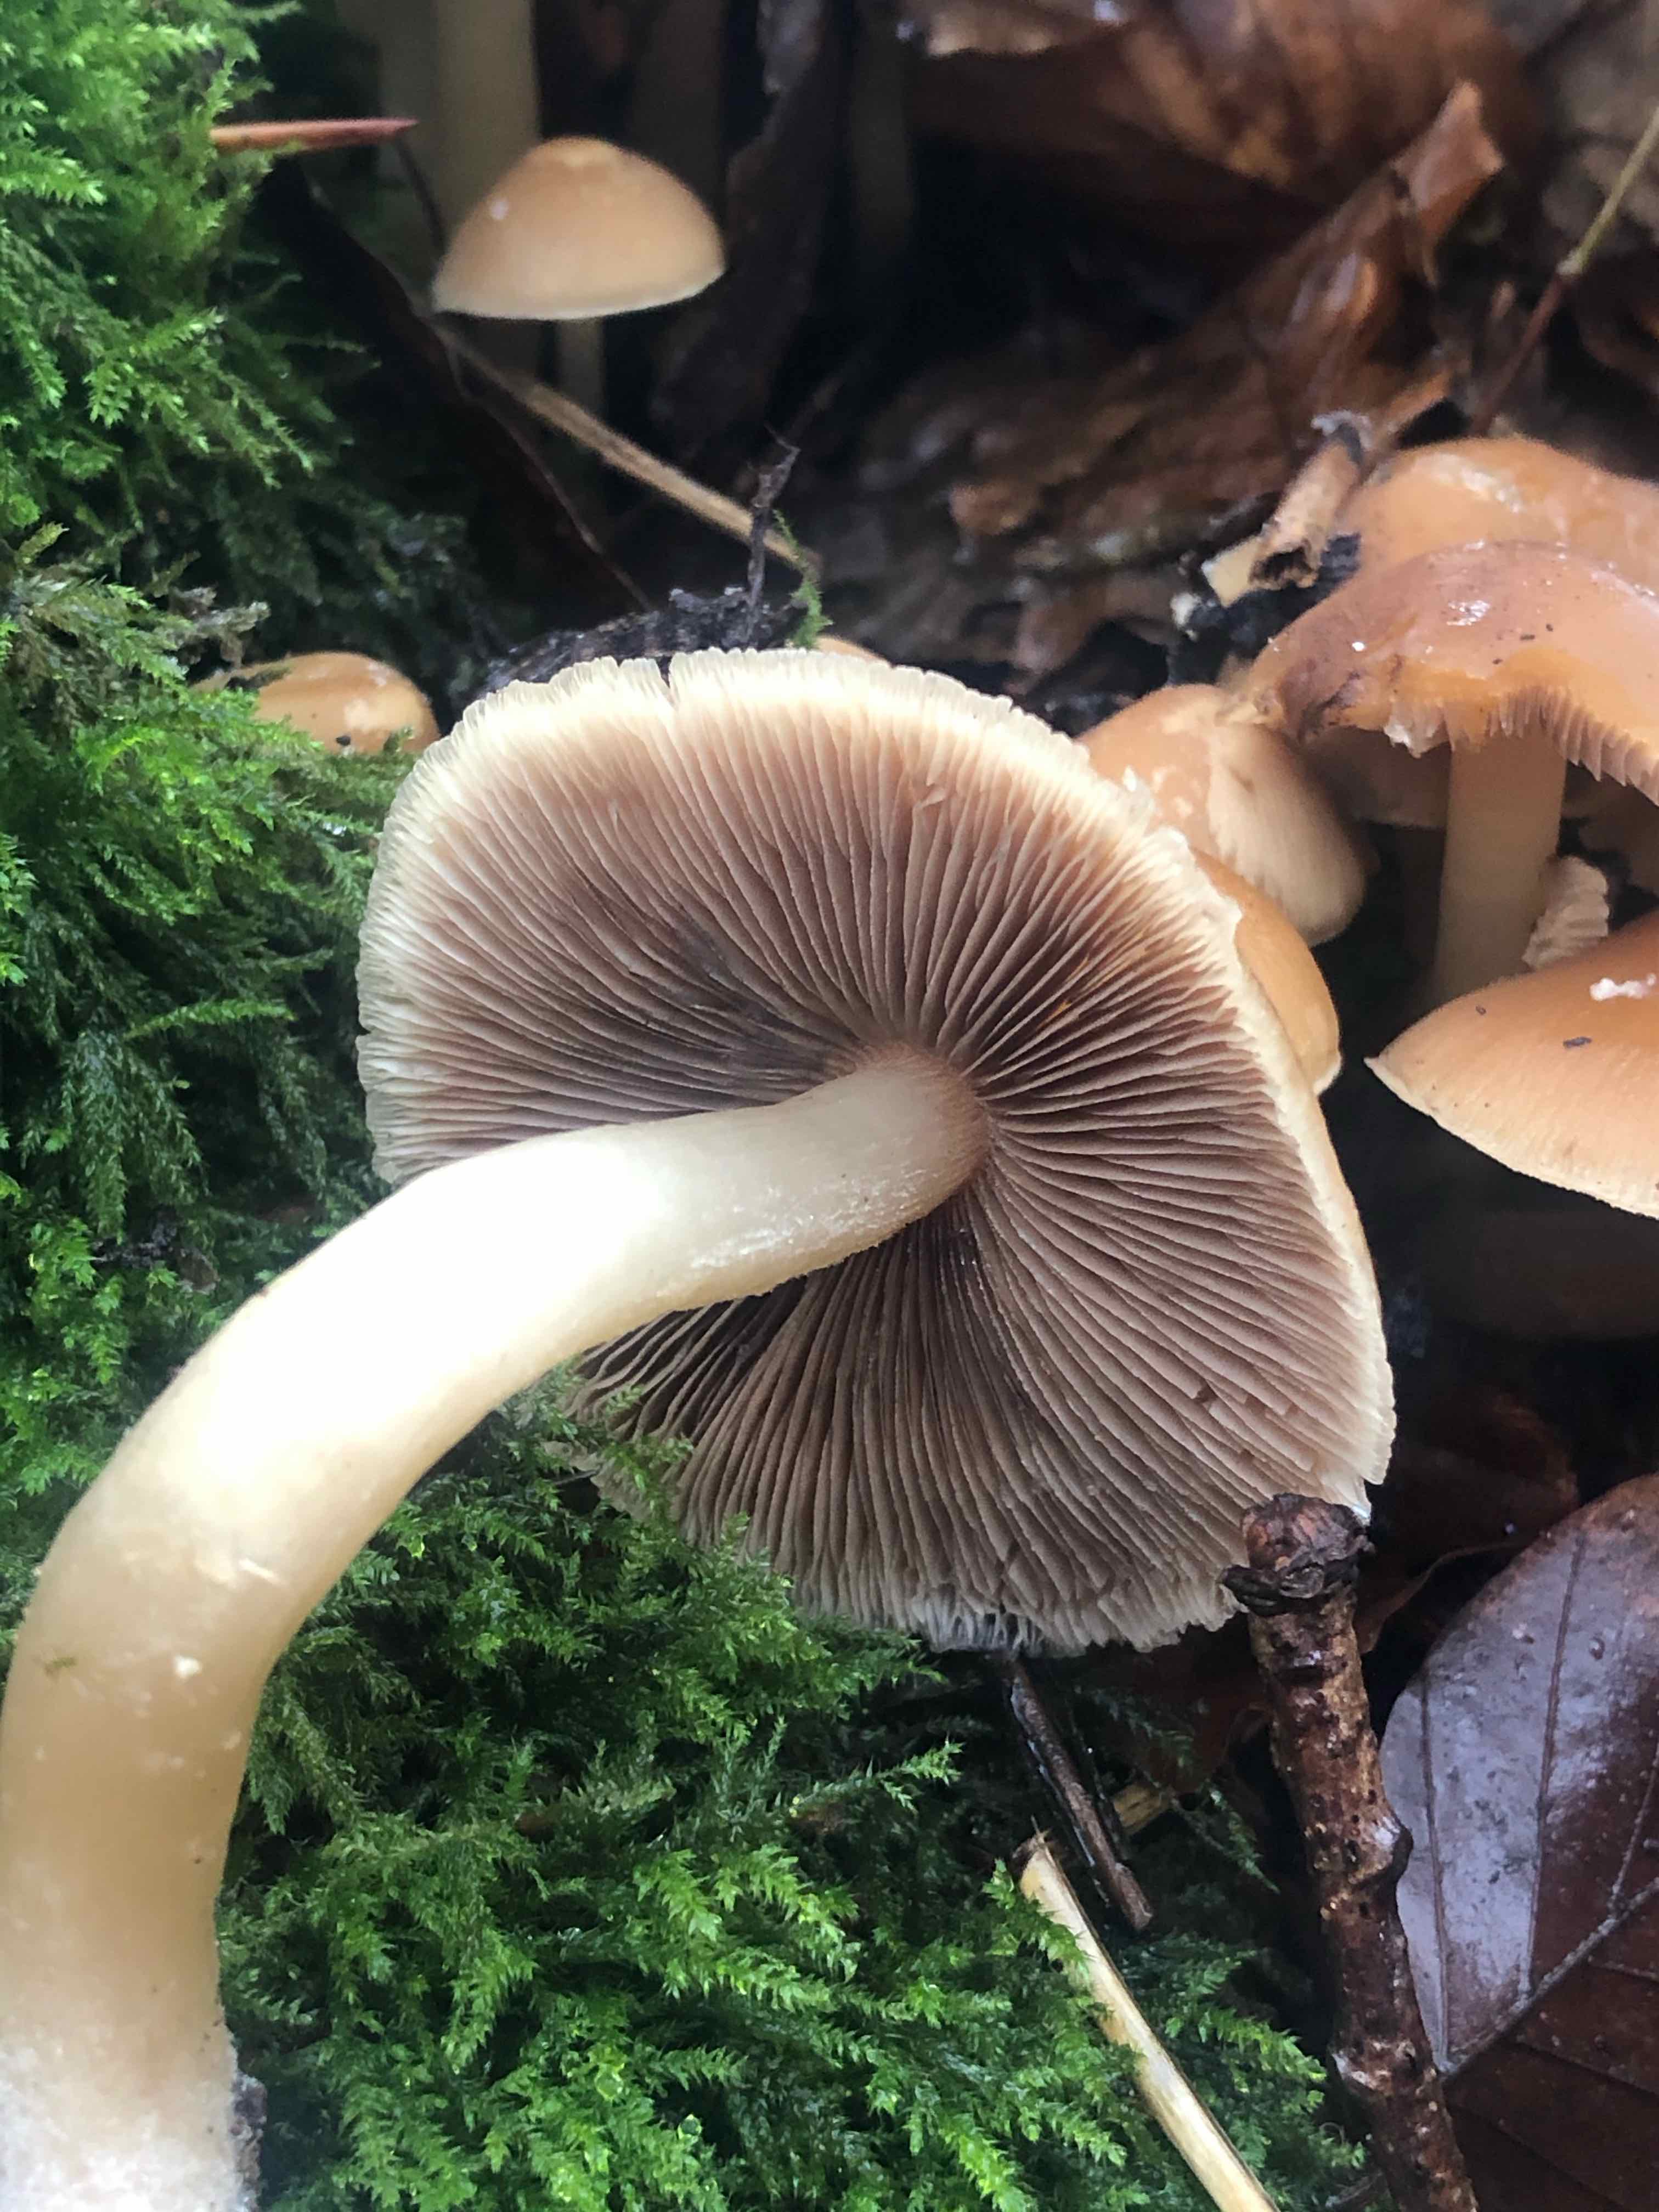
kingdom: Fungi
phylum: Basidiomycota
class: Agaricomycetes
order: Agaricales
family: Psathyrellaceae
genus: Psathyrella
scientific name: Psathyrella piluliformis
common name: lysstokket mørkhat
